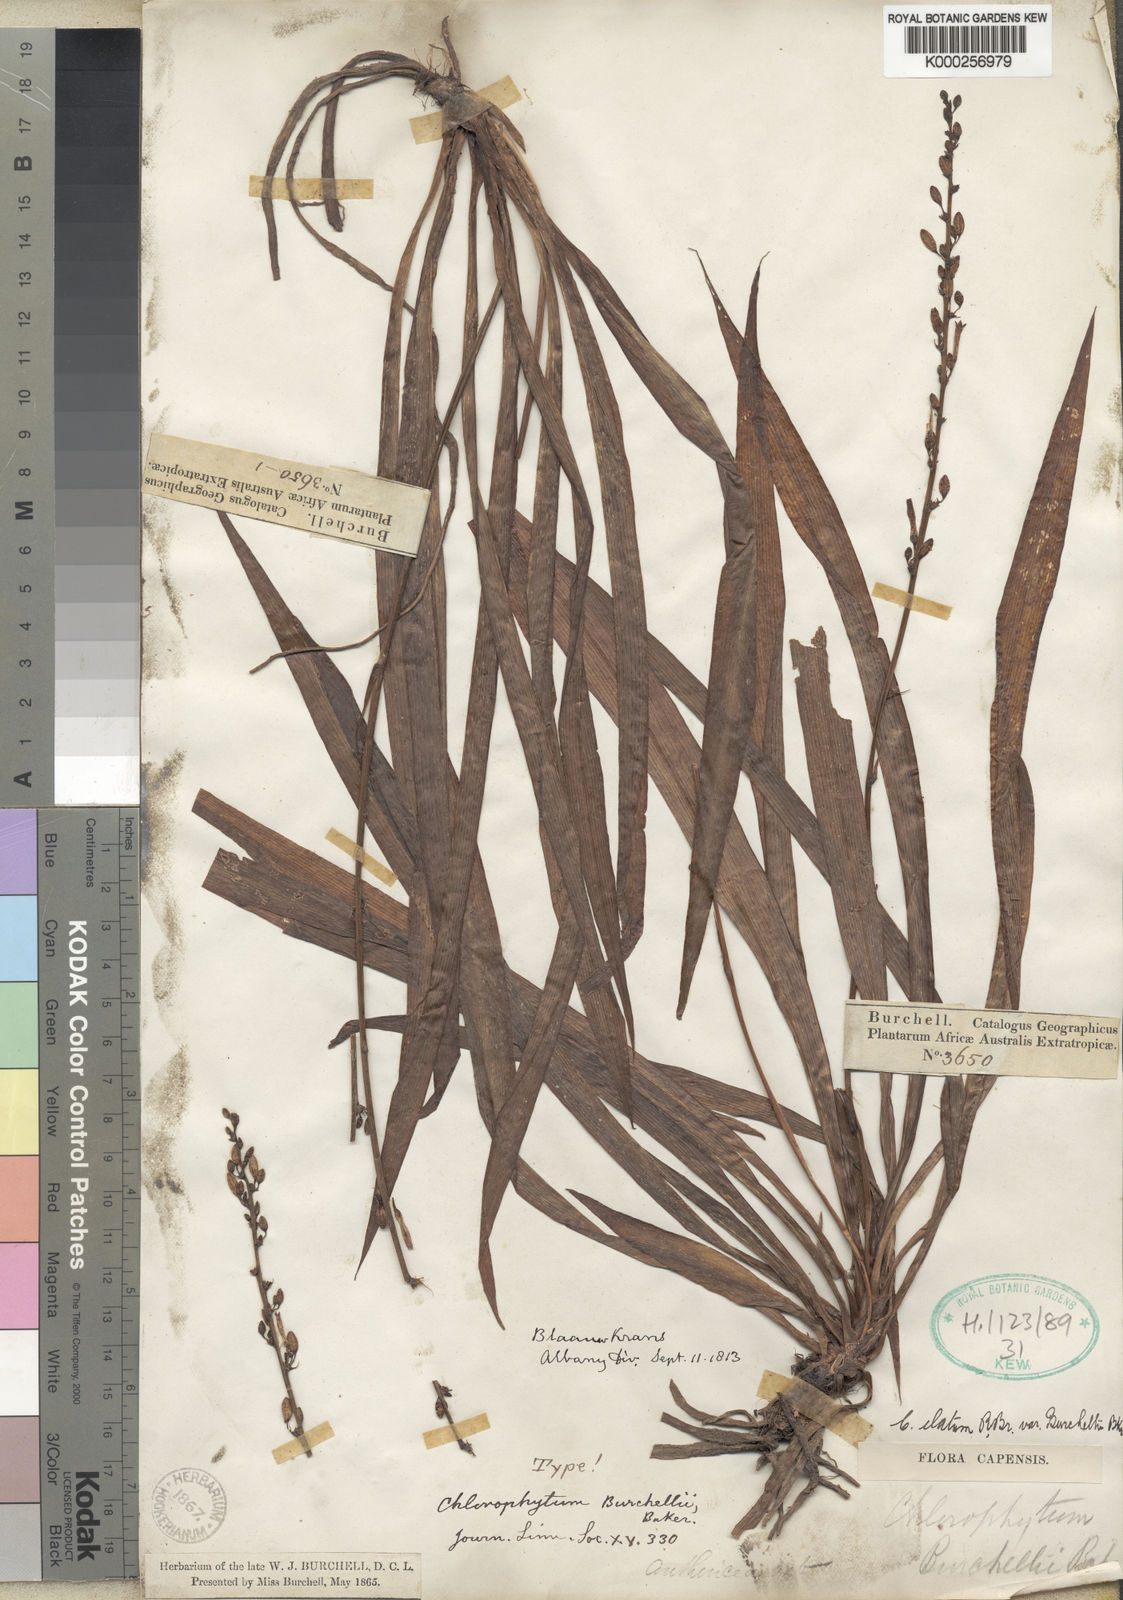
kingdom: Plantae
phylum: Tracheophyta
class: Liliopsida
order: Asparagales
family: Asparagaceae
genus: Chlorophytum
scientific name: Chlorophytum
